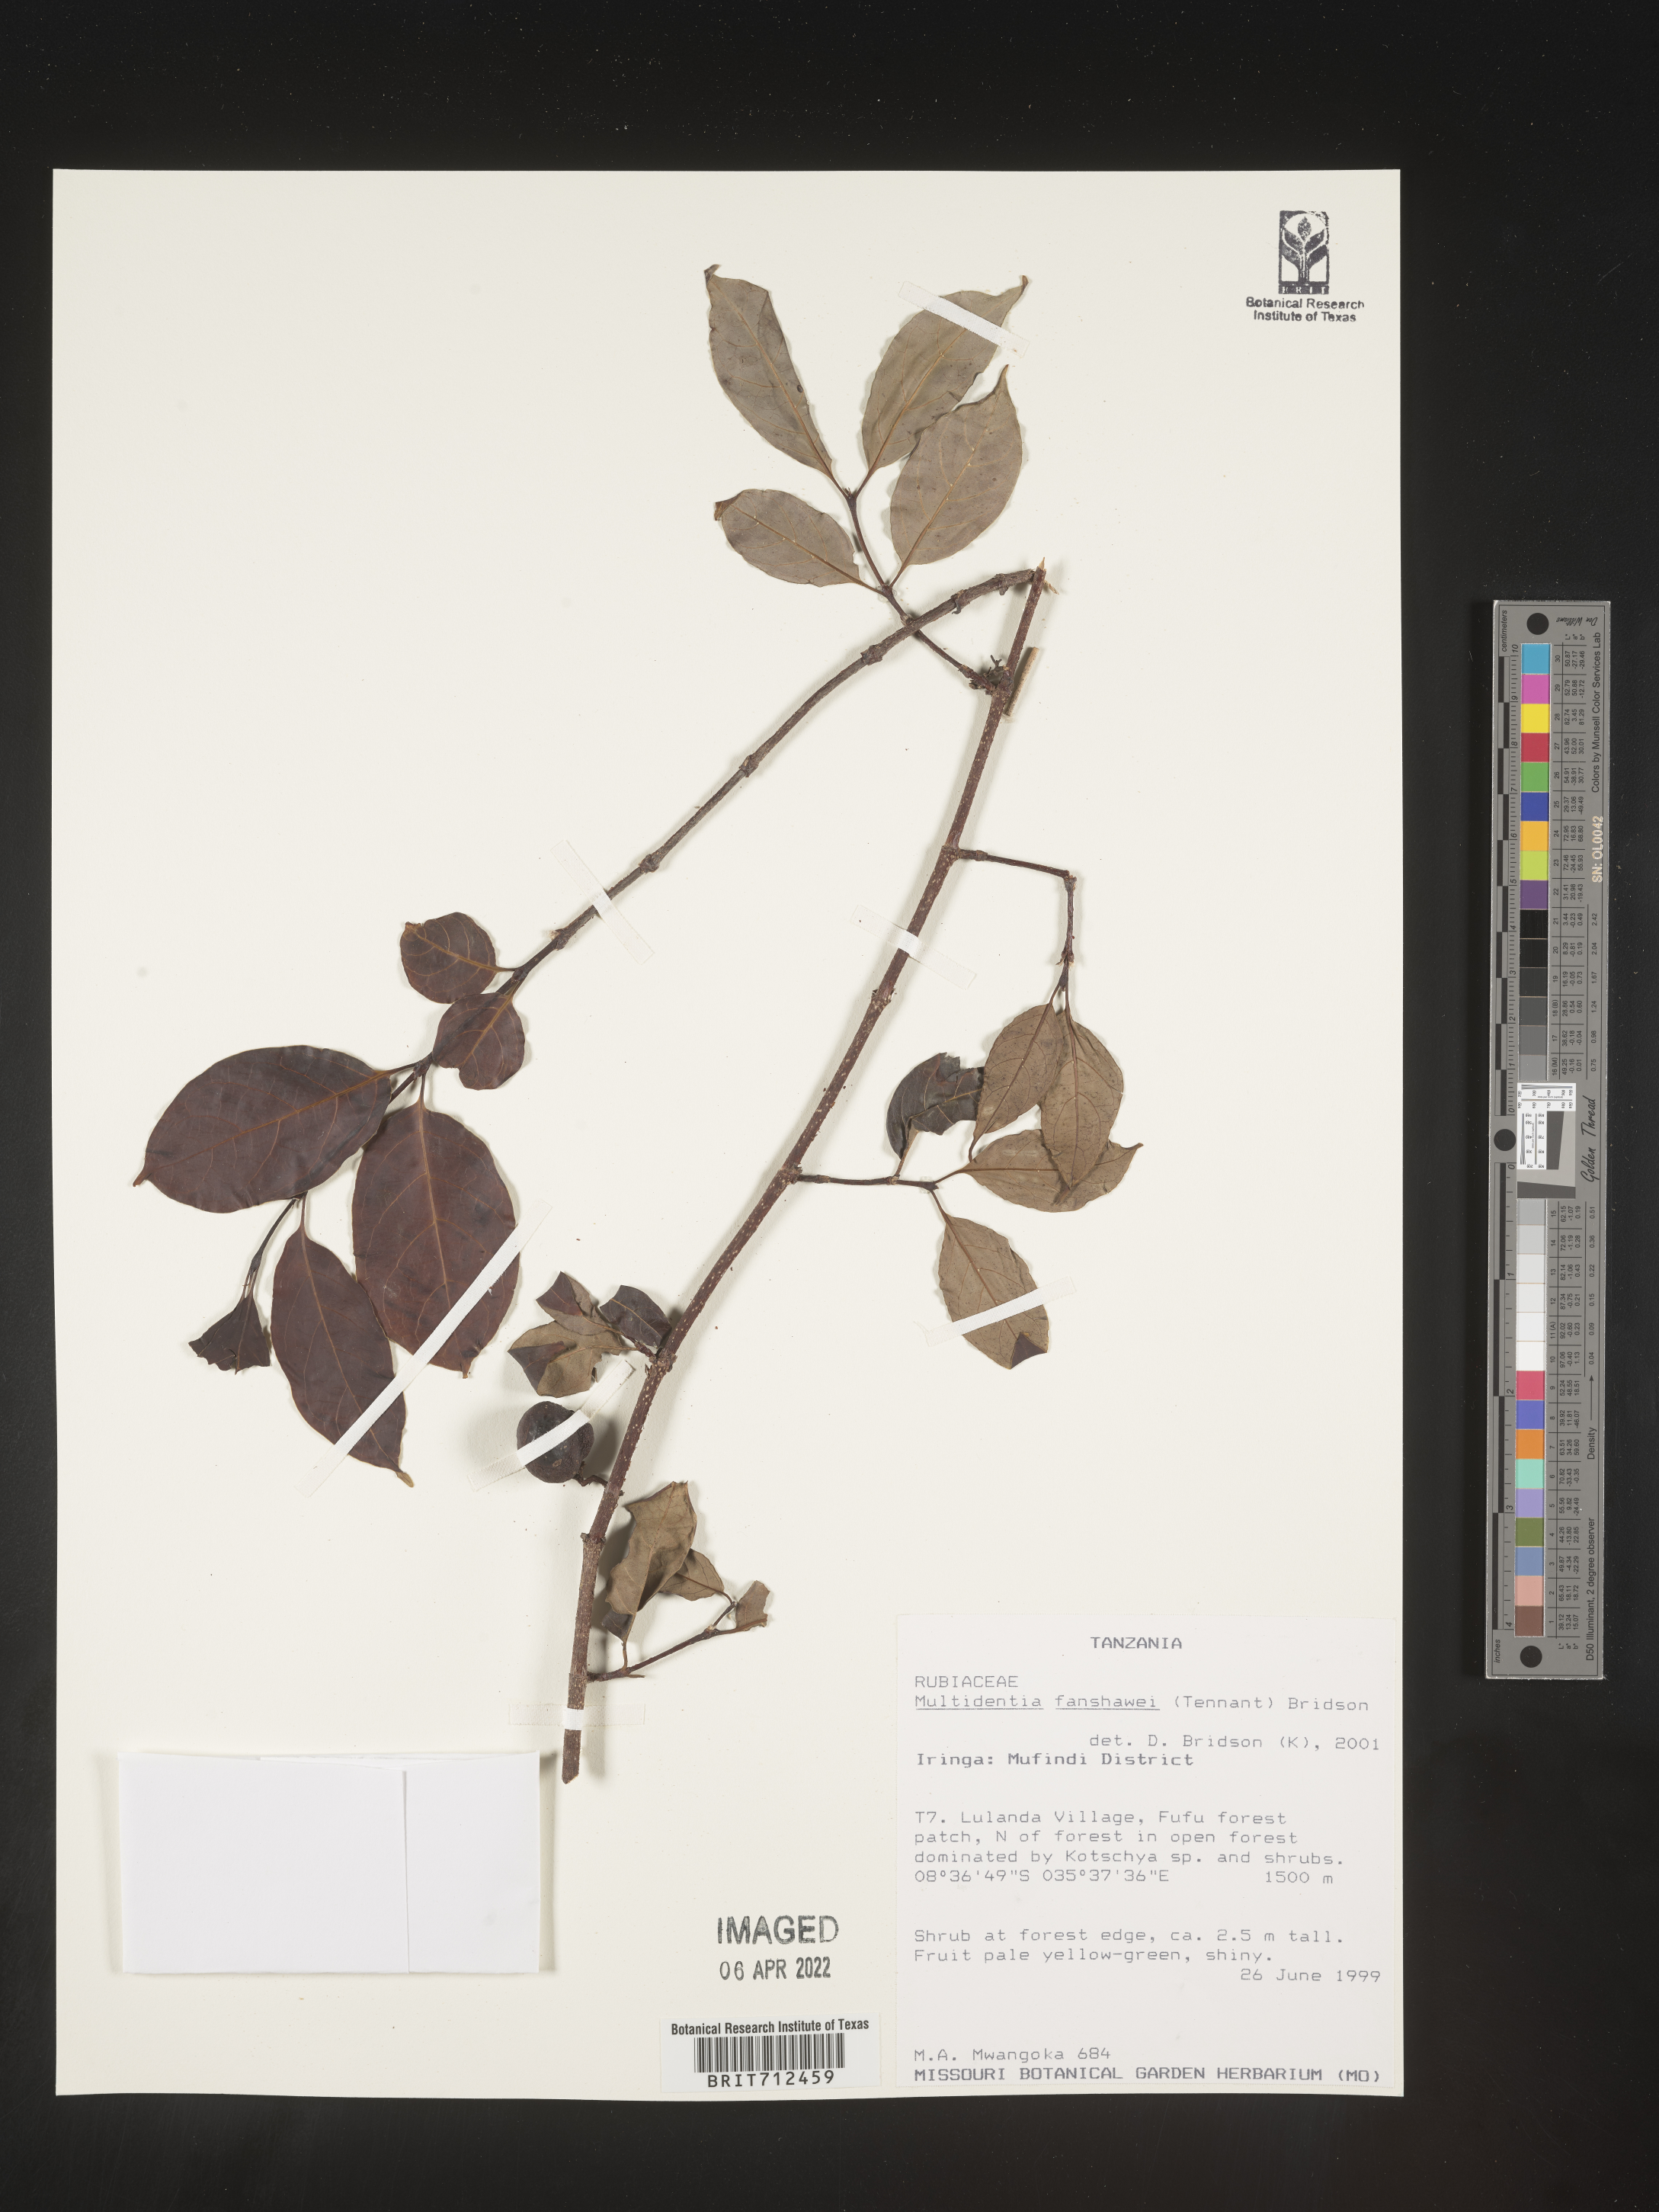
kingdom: Plantae
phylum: Tracheophyta
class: Magnoliopsida
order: Gentianales
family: Rubiaceae
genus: Multidentia
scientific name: Multidentia
